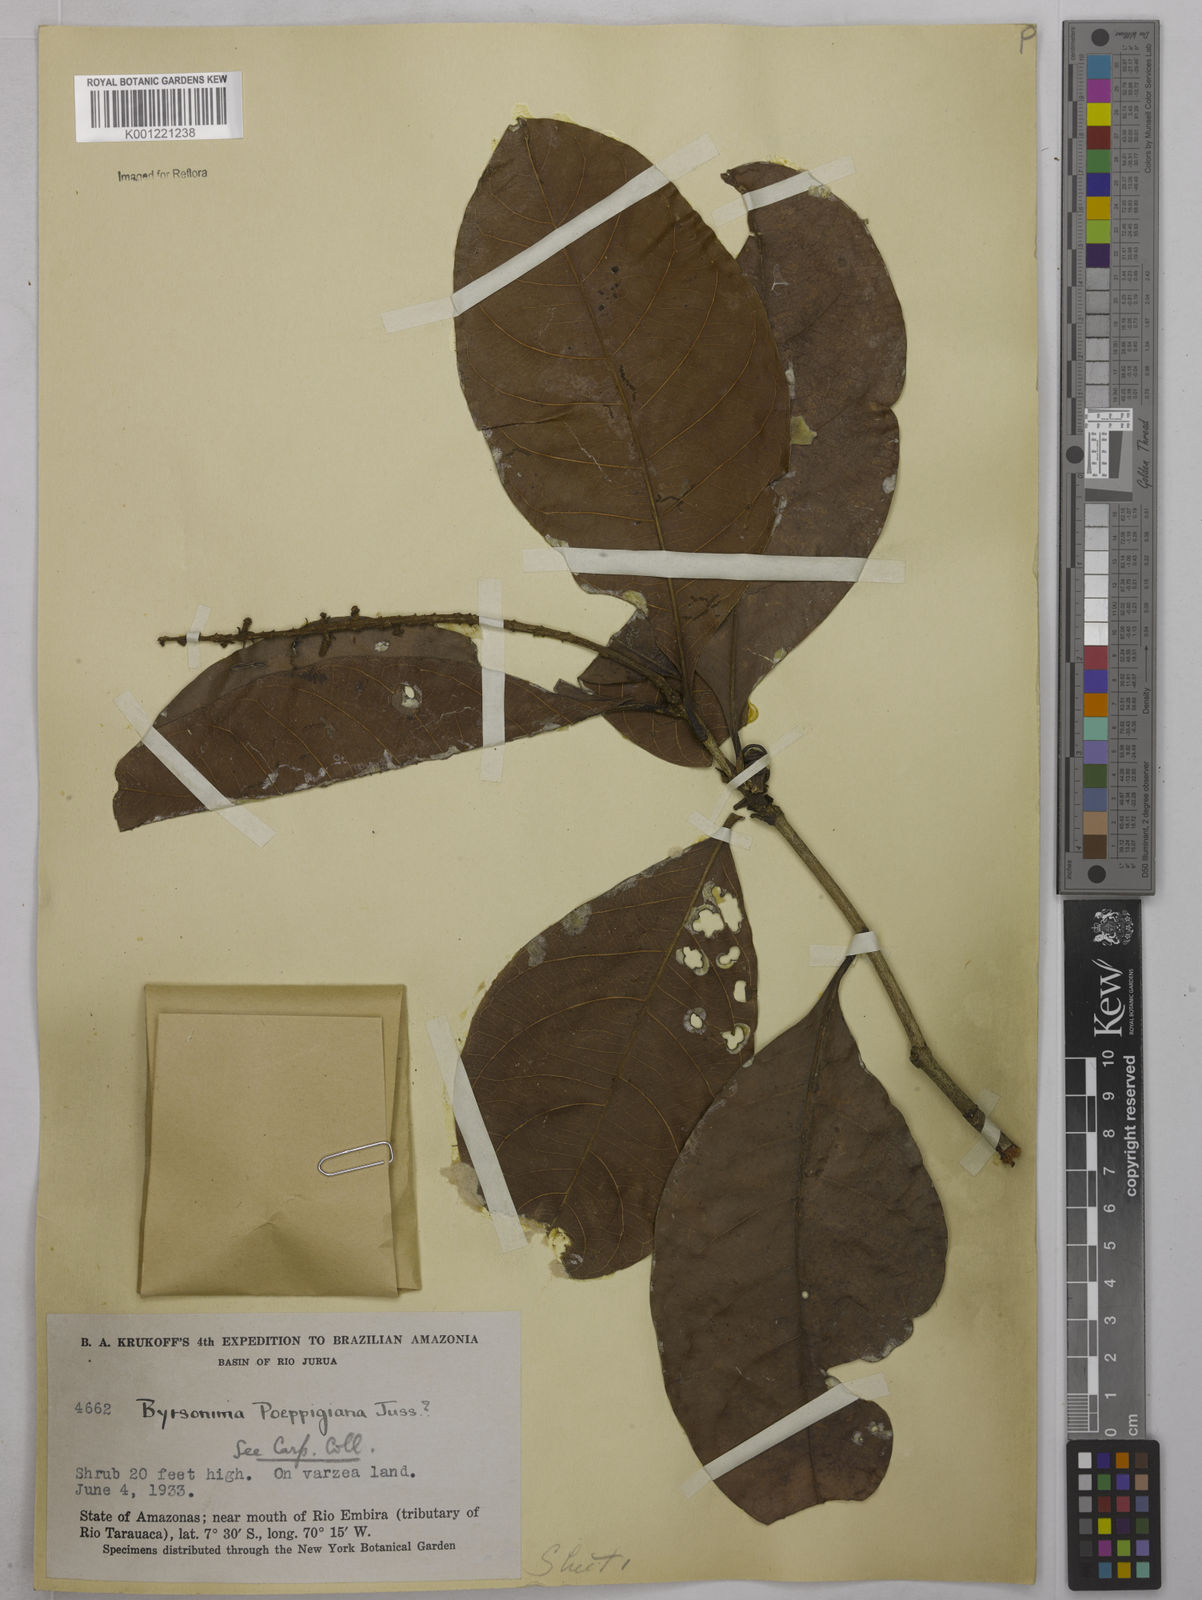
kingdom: Plantae
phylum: Tracheophyta
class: Magnoliopsida
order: Malpighiales
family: Malpighiaceae
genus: Byrsonima
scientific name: Byrsonima poeppigiana
